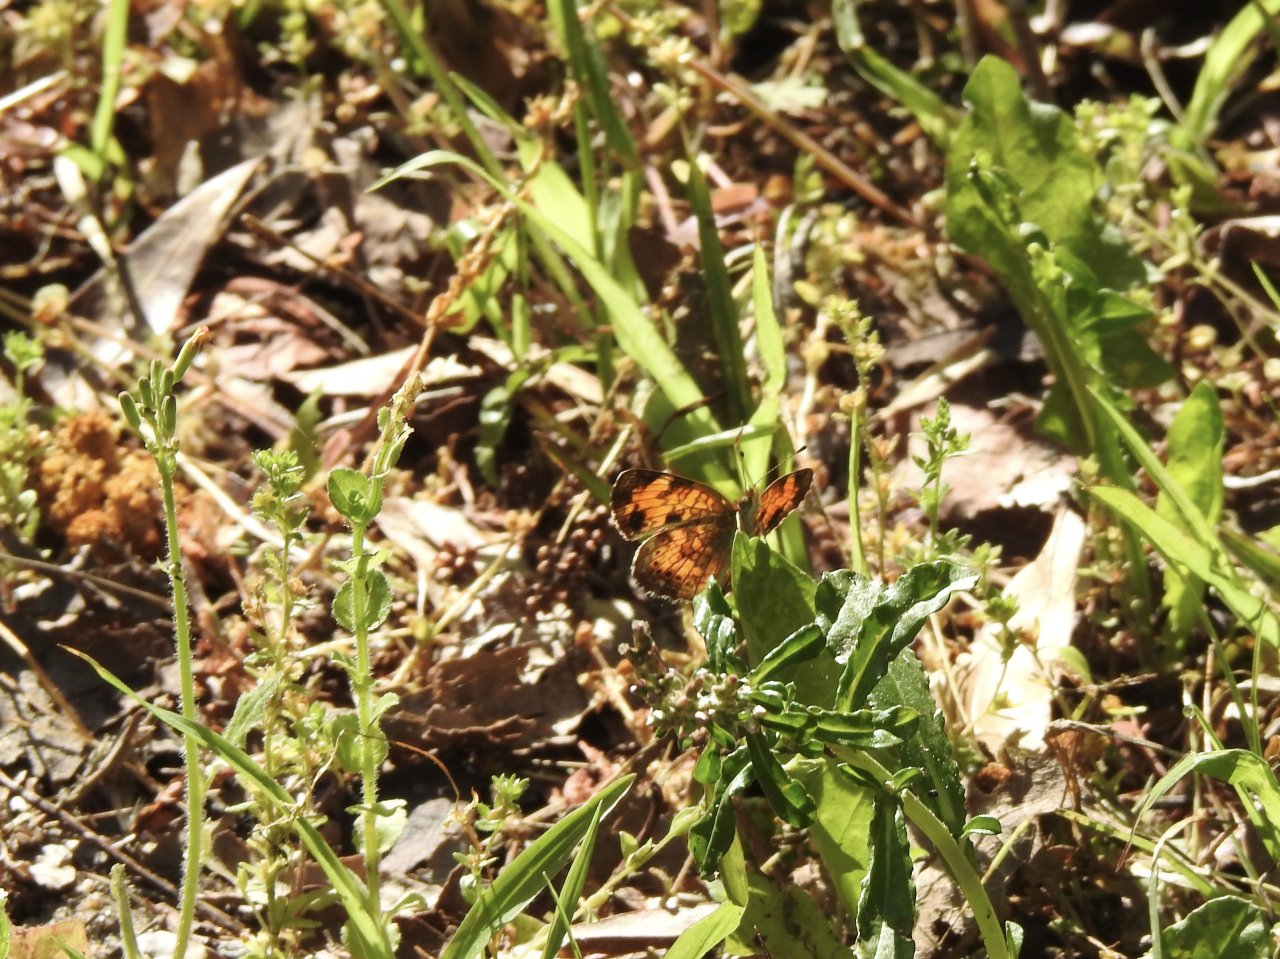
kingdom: Animalia
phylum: Arthropoda
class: Insecta
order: Lepidoptera
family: Nymphalidae
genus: Phyciodes
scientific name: Phyciodes tharos
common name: Pearl Crescent
